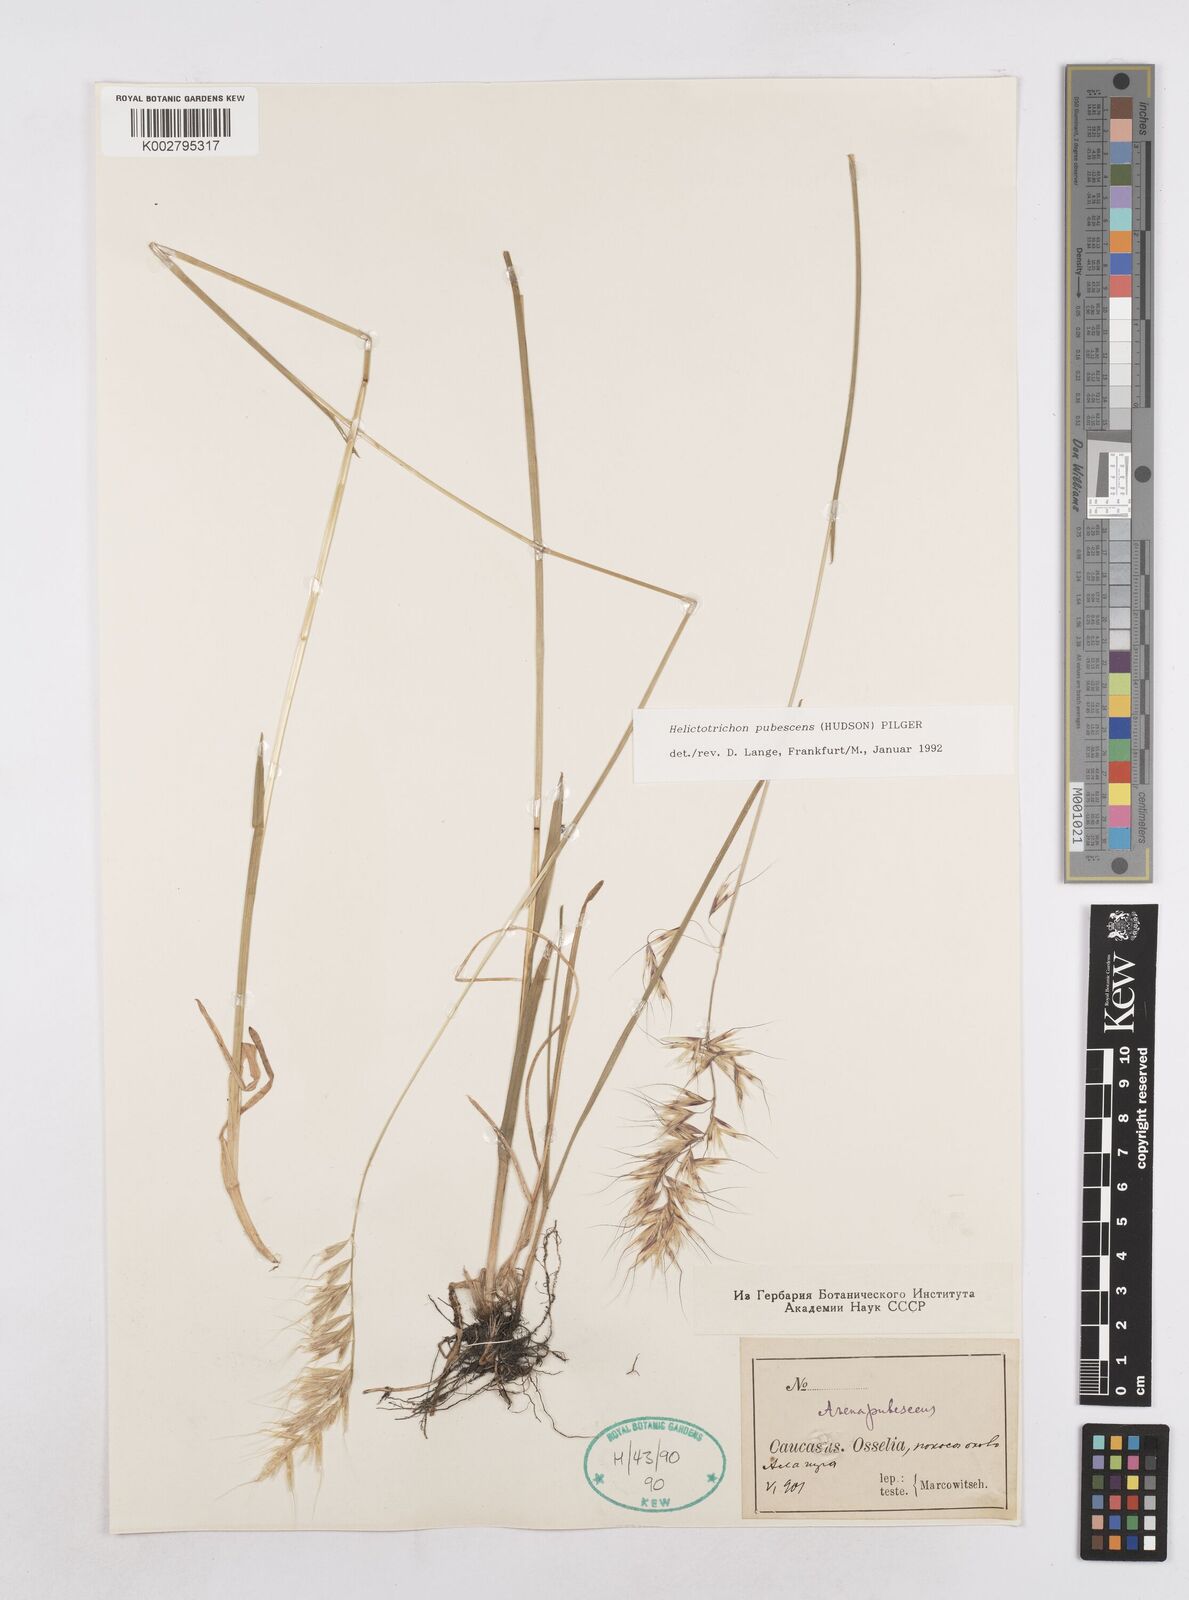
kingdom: Plantae
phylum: Tracheophyta
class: Liliopsida
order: Poales
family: Poaceae
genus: Avenula
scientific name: Avenula pubescens
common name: Downy alpine oatgrass
